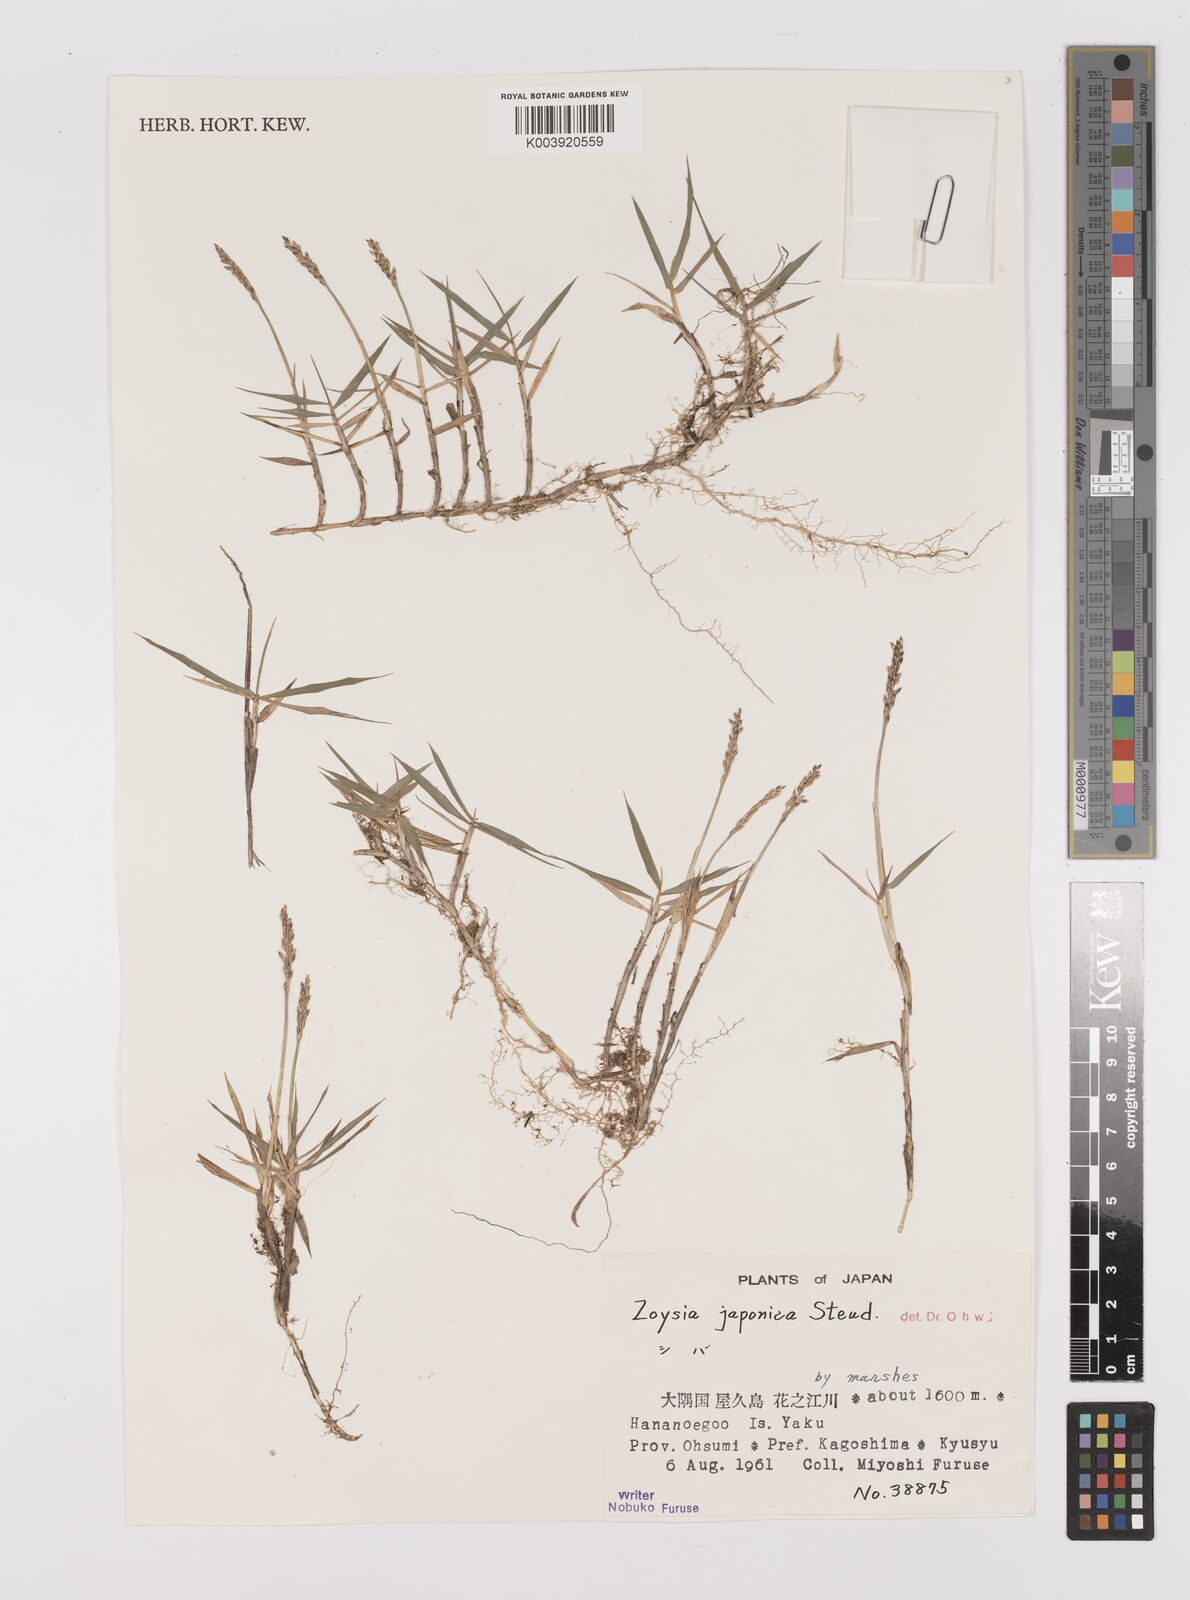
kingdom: Plantae
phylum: Tracheophyta
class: Liliopsida
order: Poales
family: Poaceae
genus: Zoysia
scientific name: Zoysia japonica
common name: Korean lawngrass
